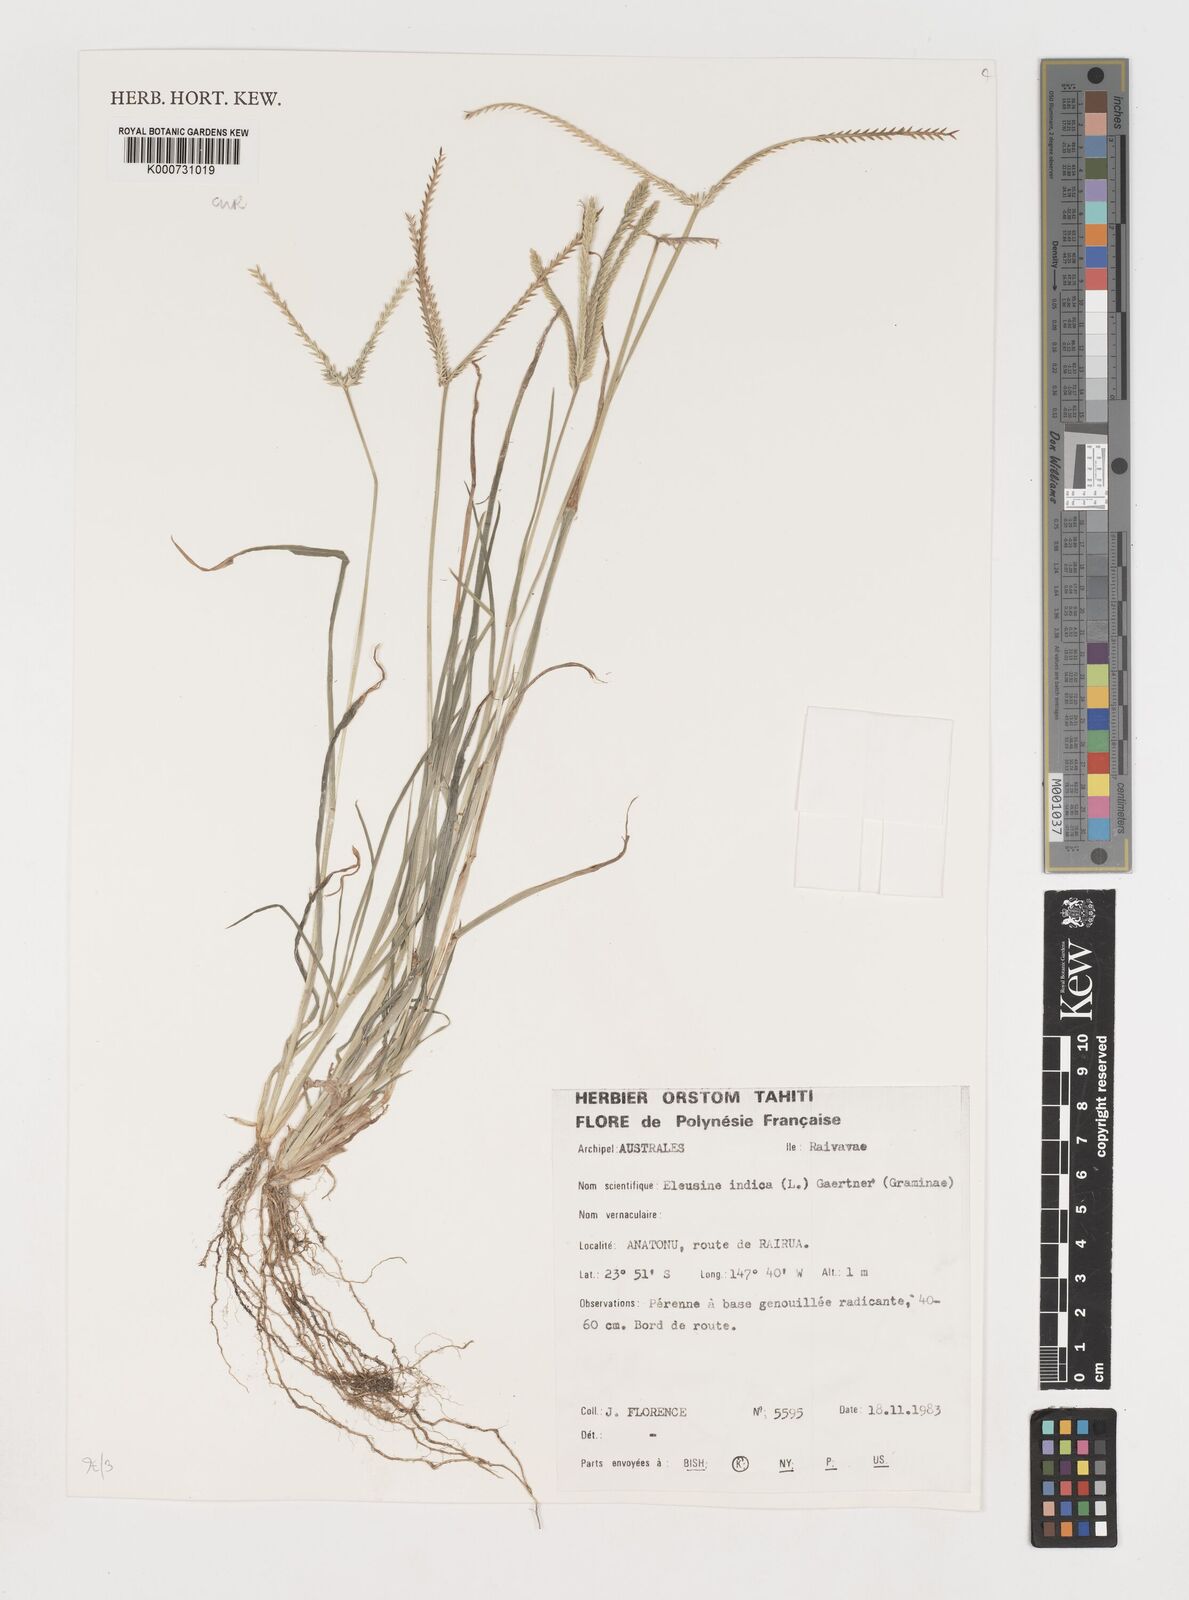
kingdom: Plantae
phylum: Tracheophyta
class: Liliopsida
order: Poales
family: Poaceae
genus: Eleusine
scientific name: Eleusine indica
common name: Yard-grass
